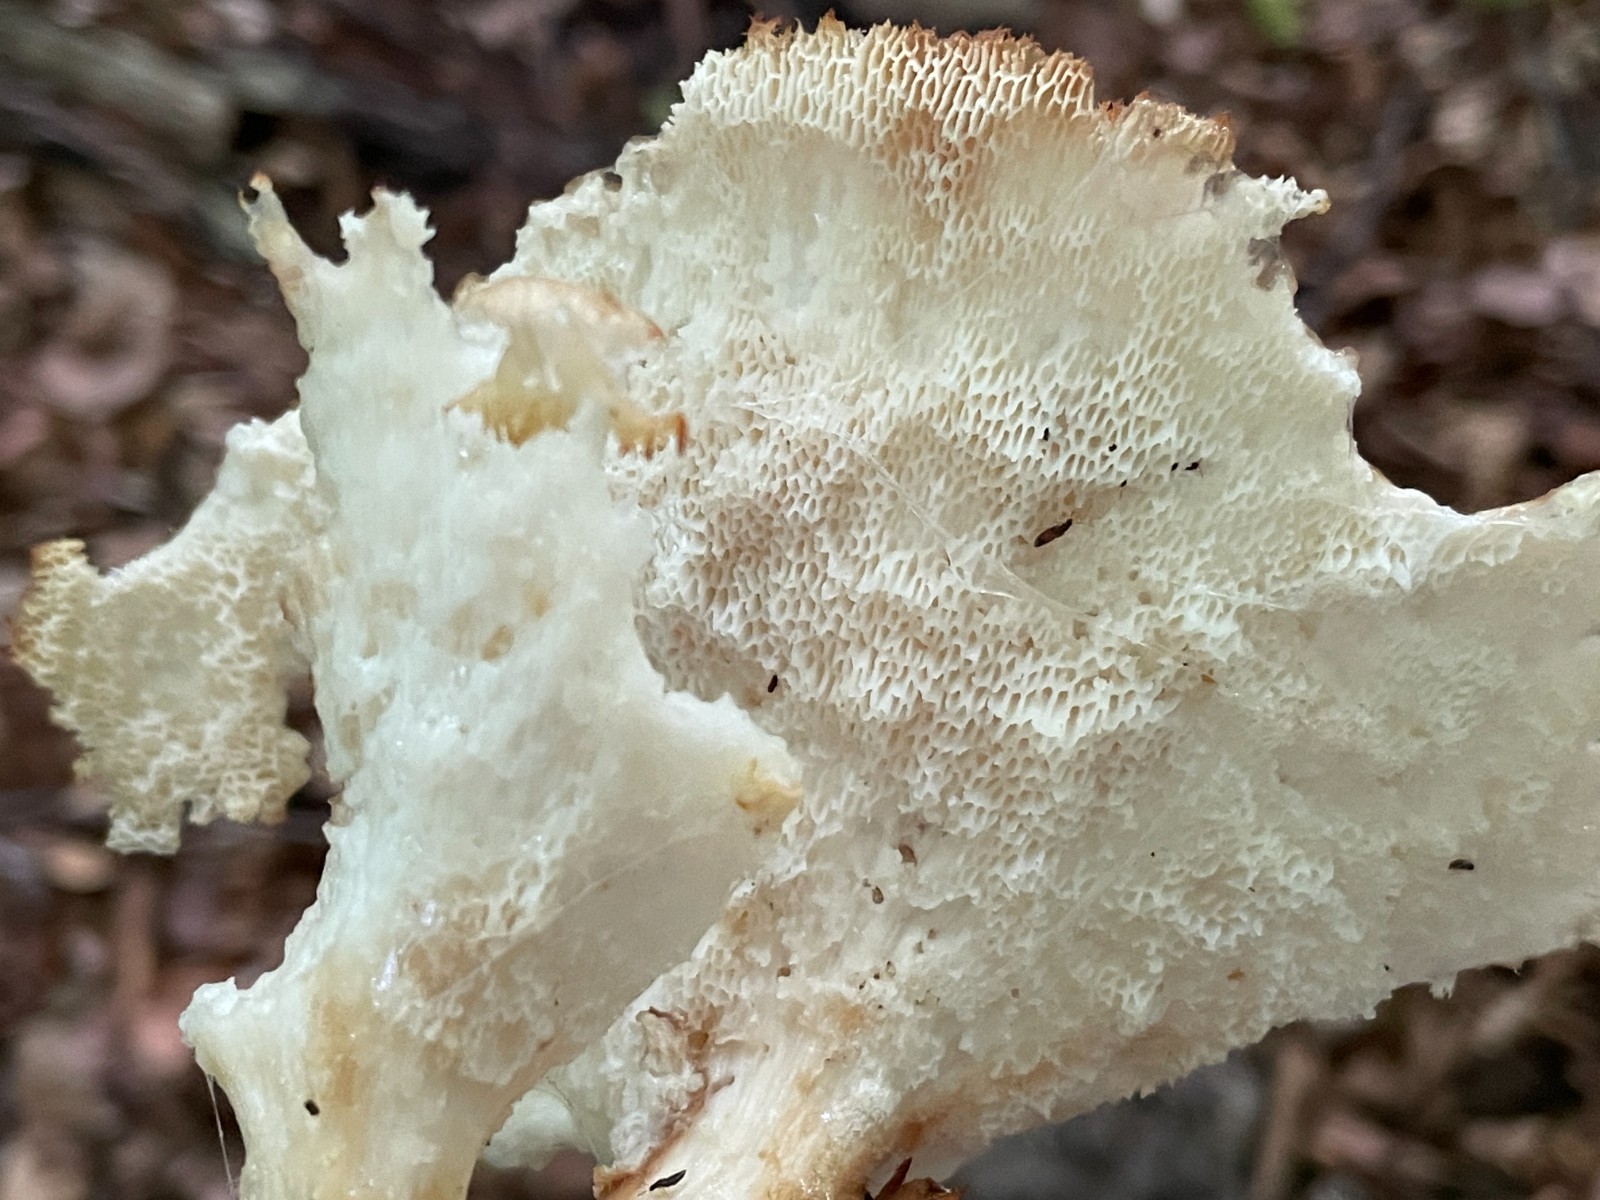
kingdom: Fungi
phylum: Basidiomycota
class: Agaricomycetes
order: Polyporales
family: Polyporaceae
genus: Polyporus
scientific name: Polyporus tuberaster
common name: knoldet stilkporesvamp
